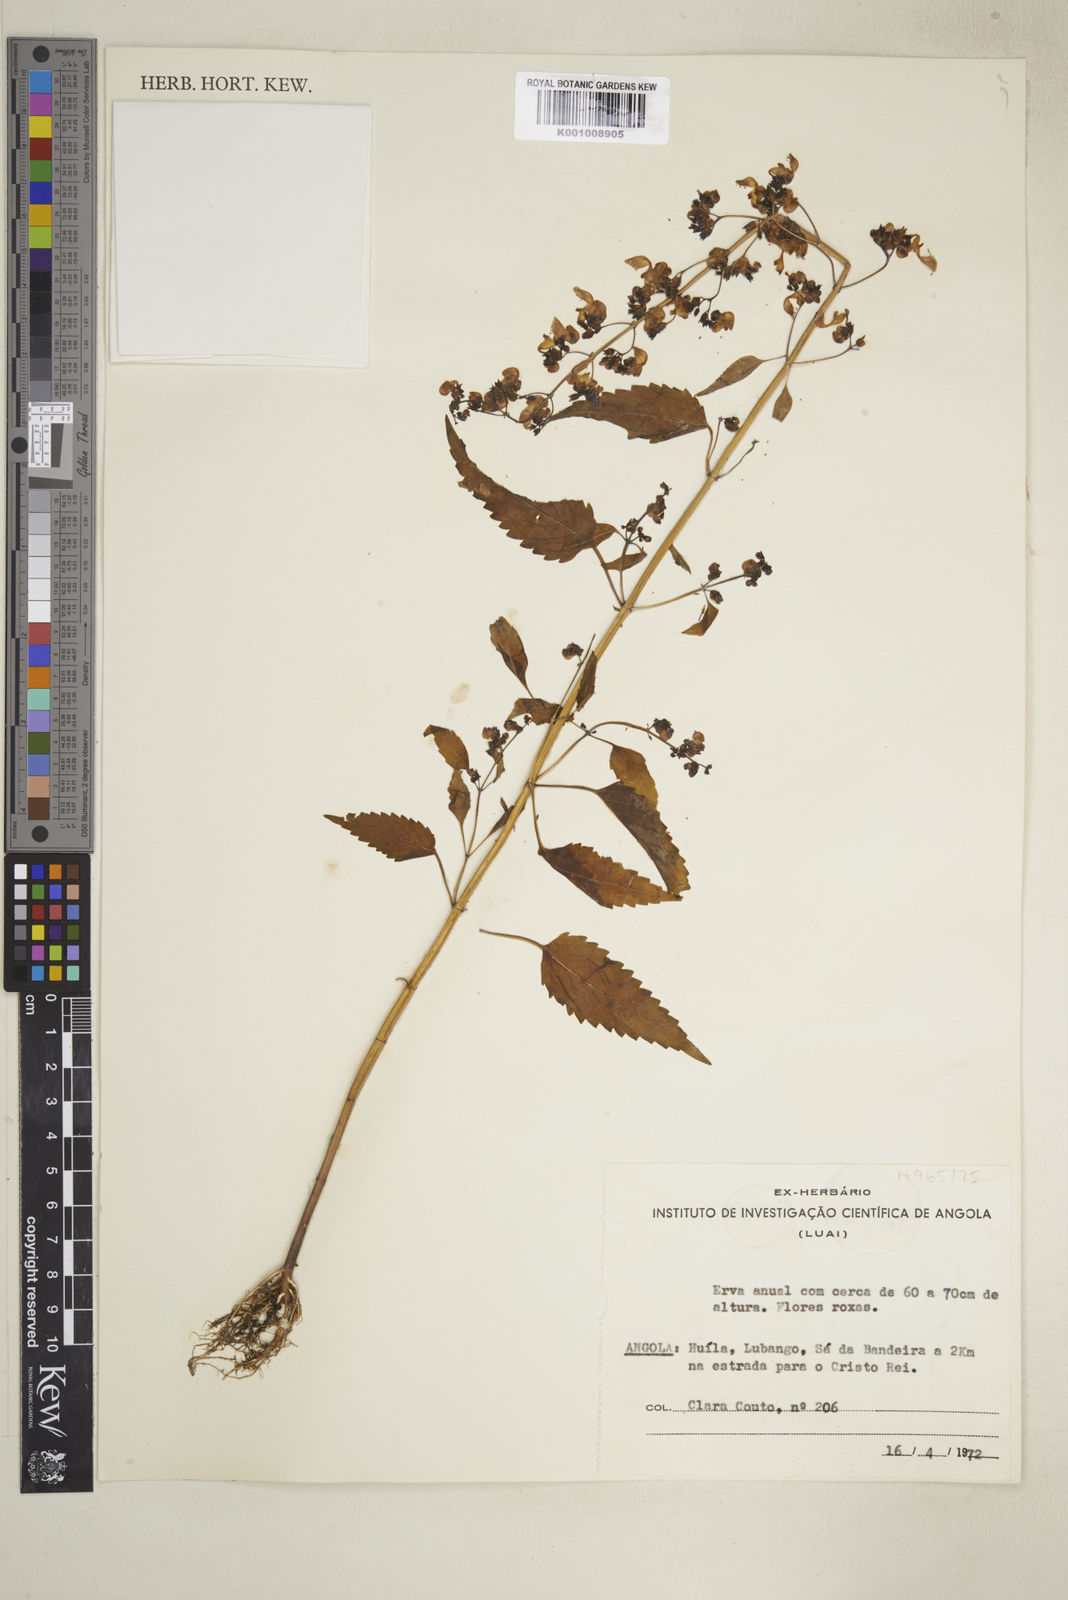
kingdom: Plantae
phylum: Tracheophyta
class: Magnoliopsida
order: Lamiales
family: Lamiaceae
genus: Coleus
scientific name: Coleus hereroensis
